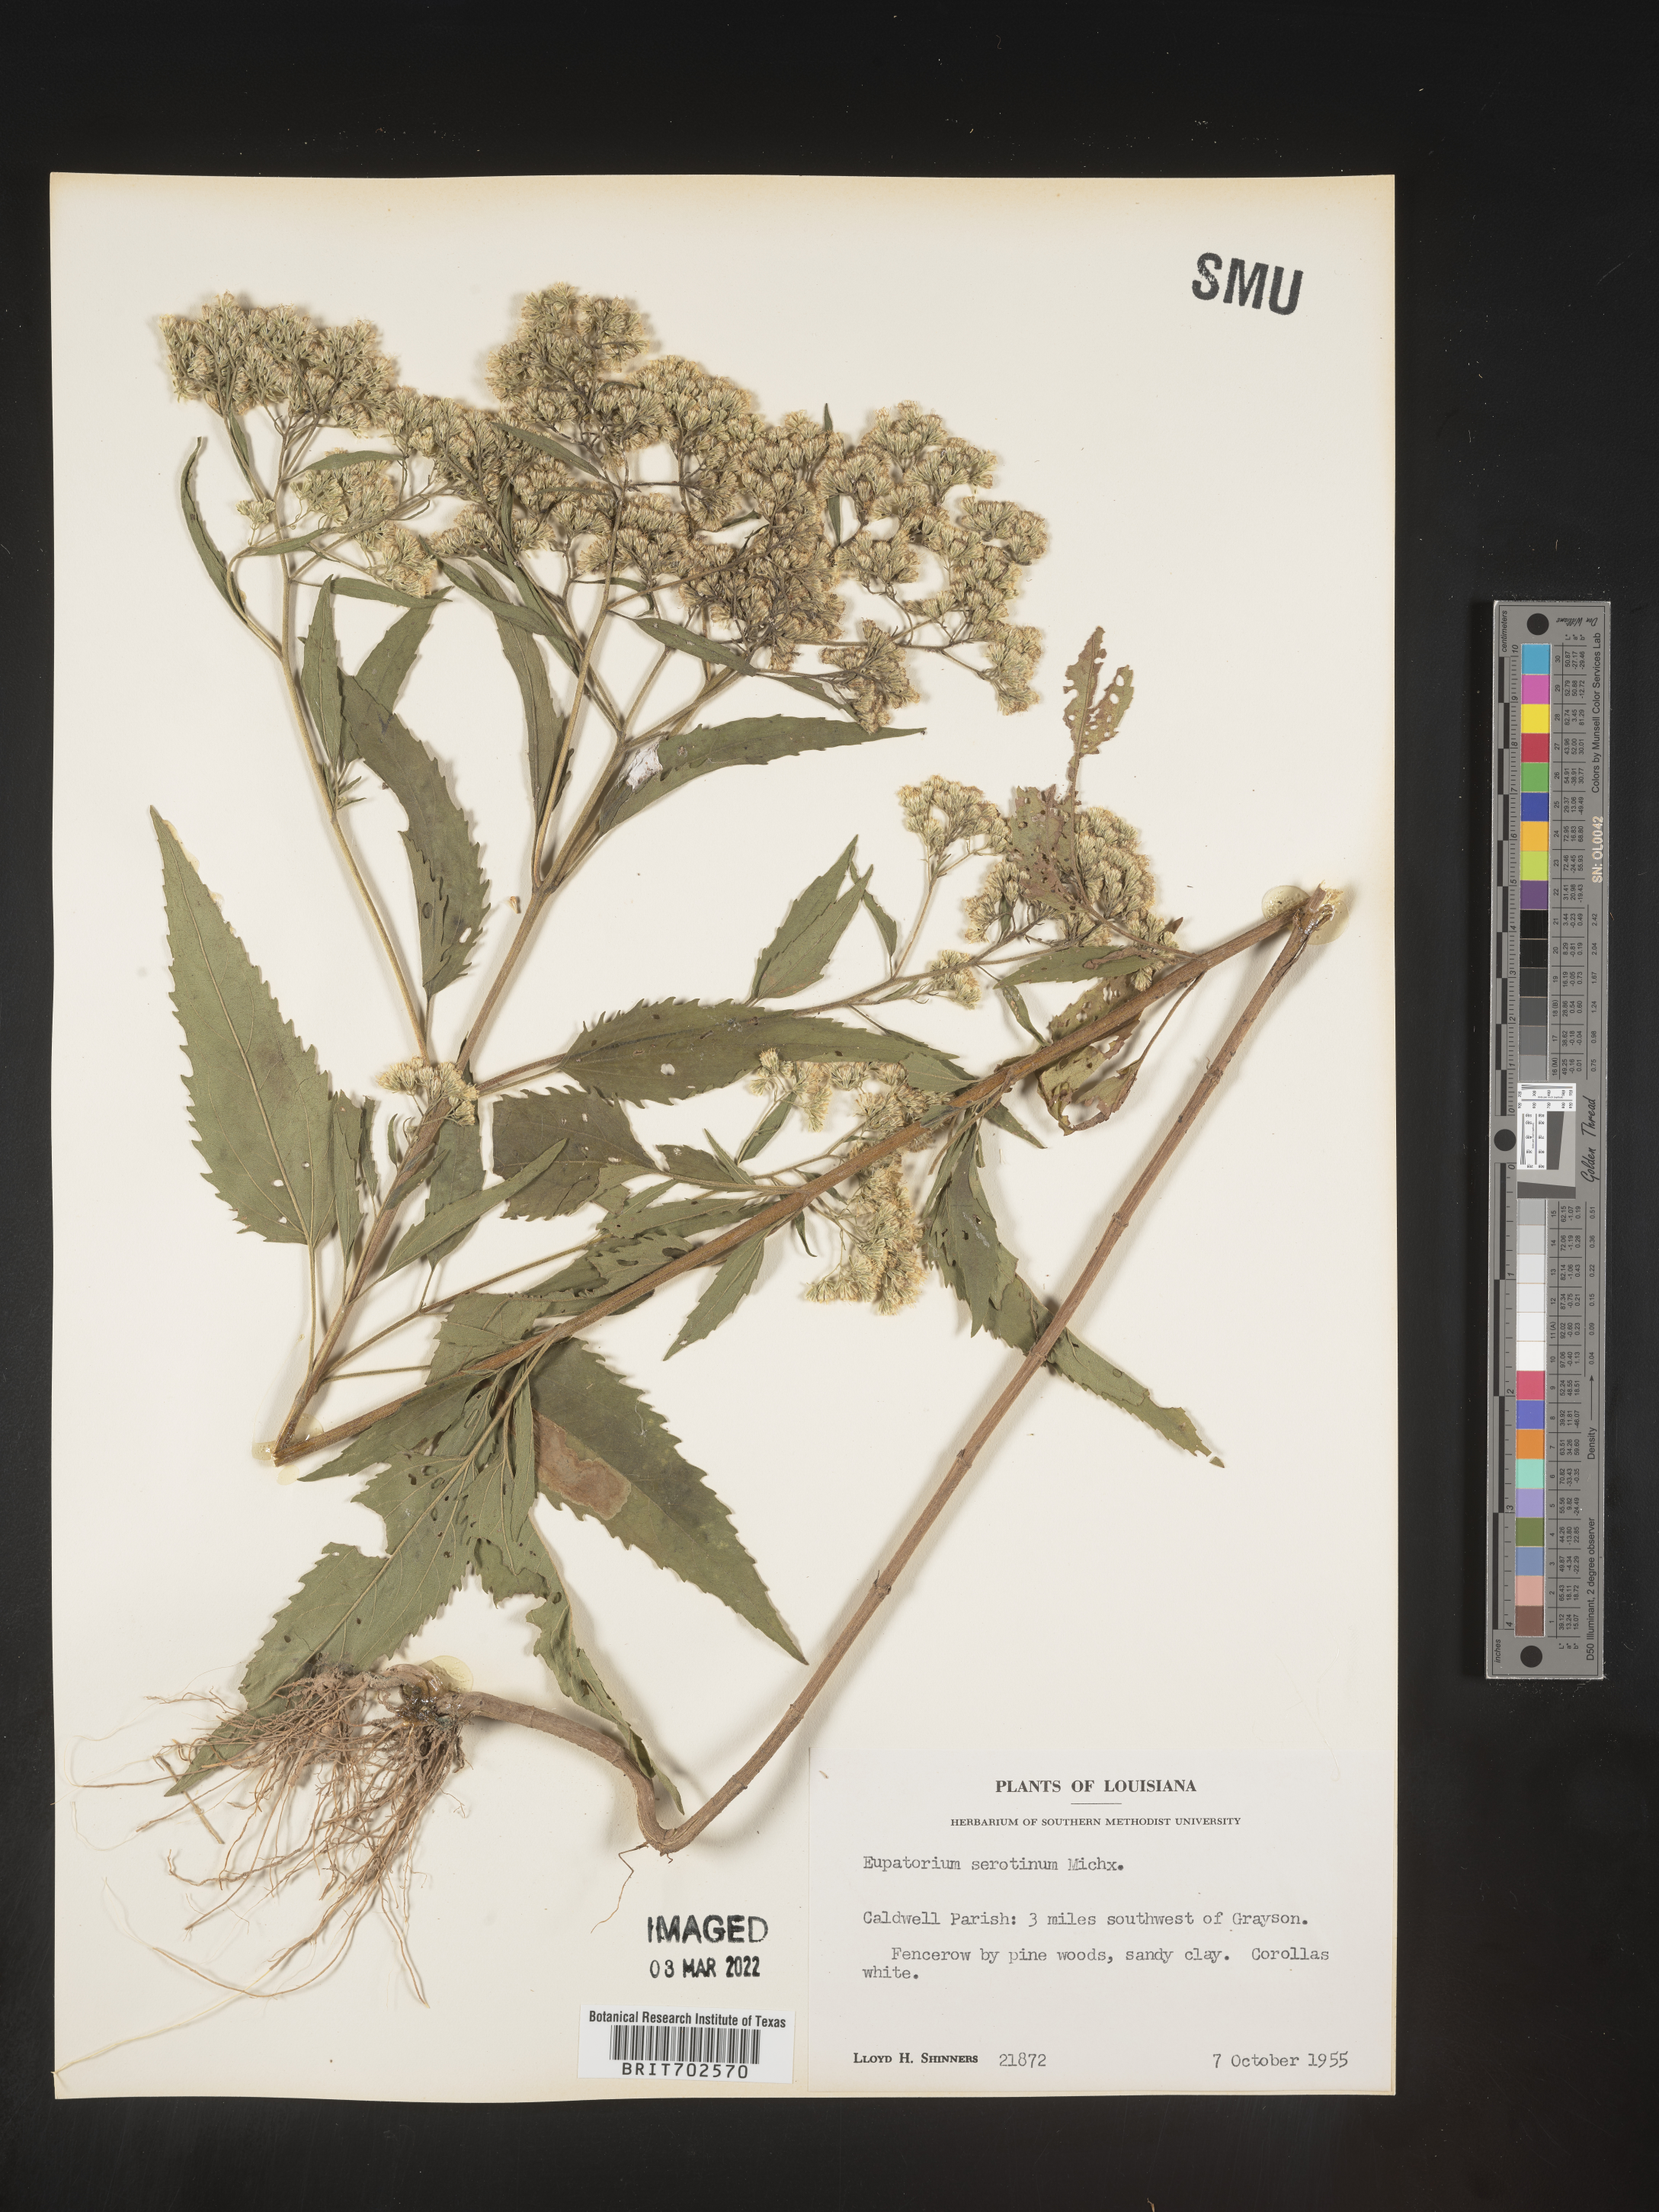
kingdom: Plantae
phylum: Tracheophyta
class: Magnoliopsida
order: Asterales
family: Asteraceae
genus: Eupatorium
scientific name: Eupatorium serotinum
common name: Late boneset
